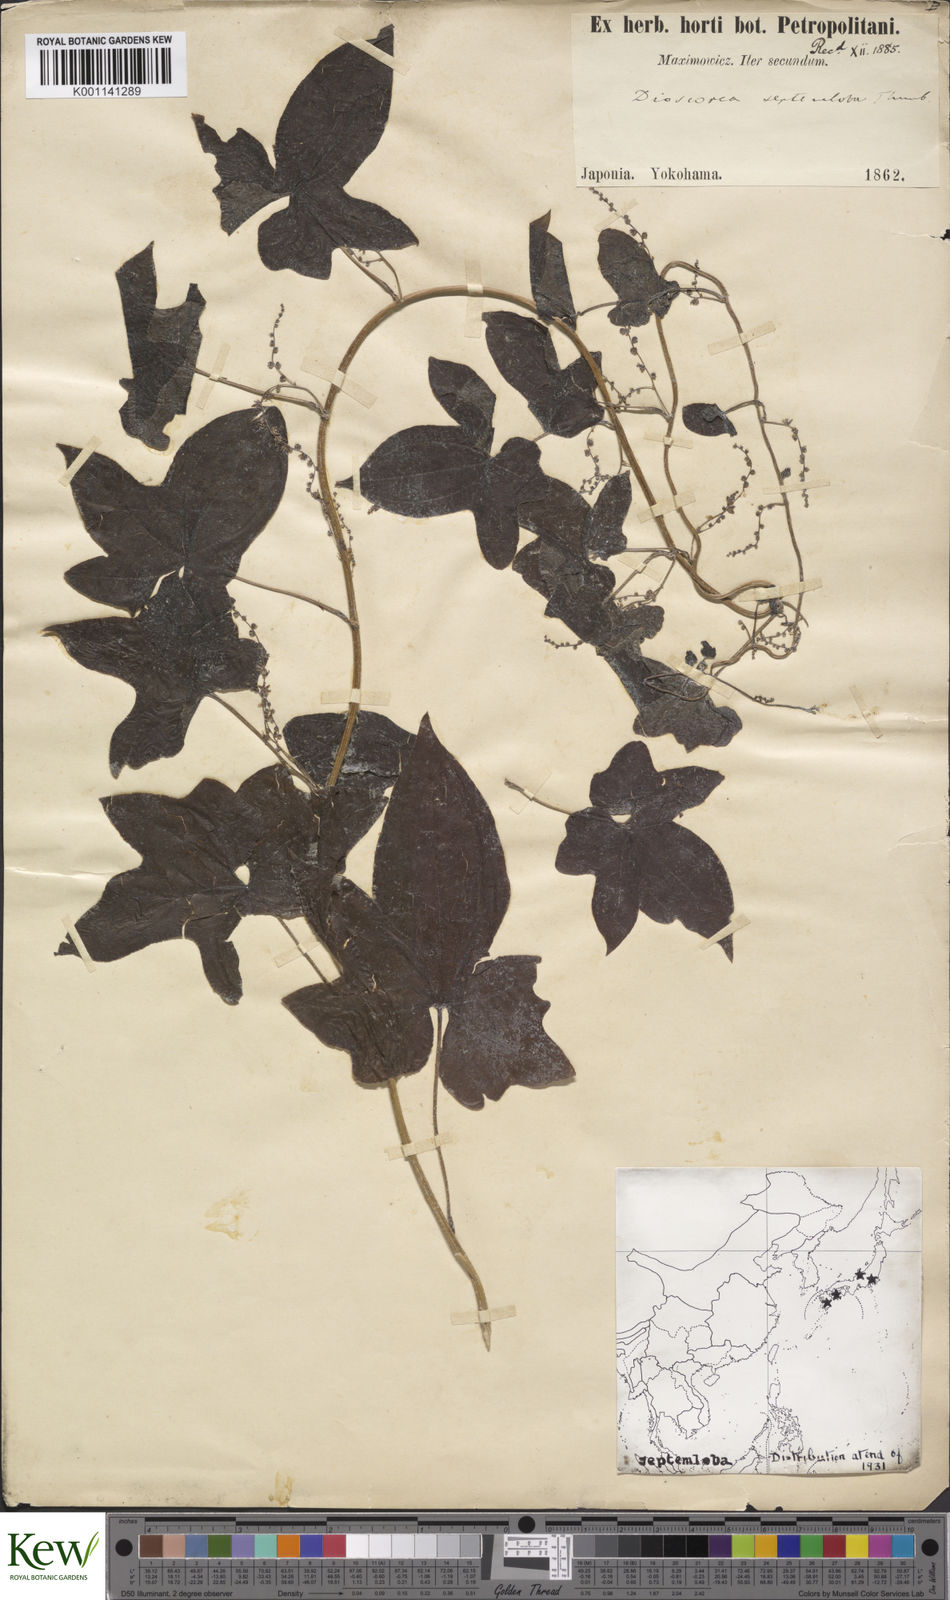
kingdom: Plantae
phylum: Tracheophyta
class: Liliopsida
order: Dioscoreales
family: Dioscoreaceae
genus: Dioscorea
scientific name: Dioscorea septemloba
